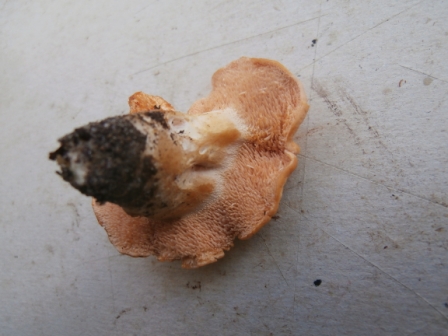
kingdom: Fungi
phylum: Basidiomycota
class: Agaricomycetes
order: Cantharellales
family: Hydnaceae
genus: Hydnum
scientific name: Hydnum ellipsosporum
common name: tandet pigsvamp
